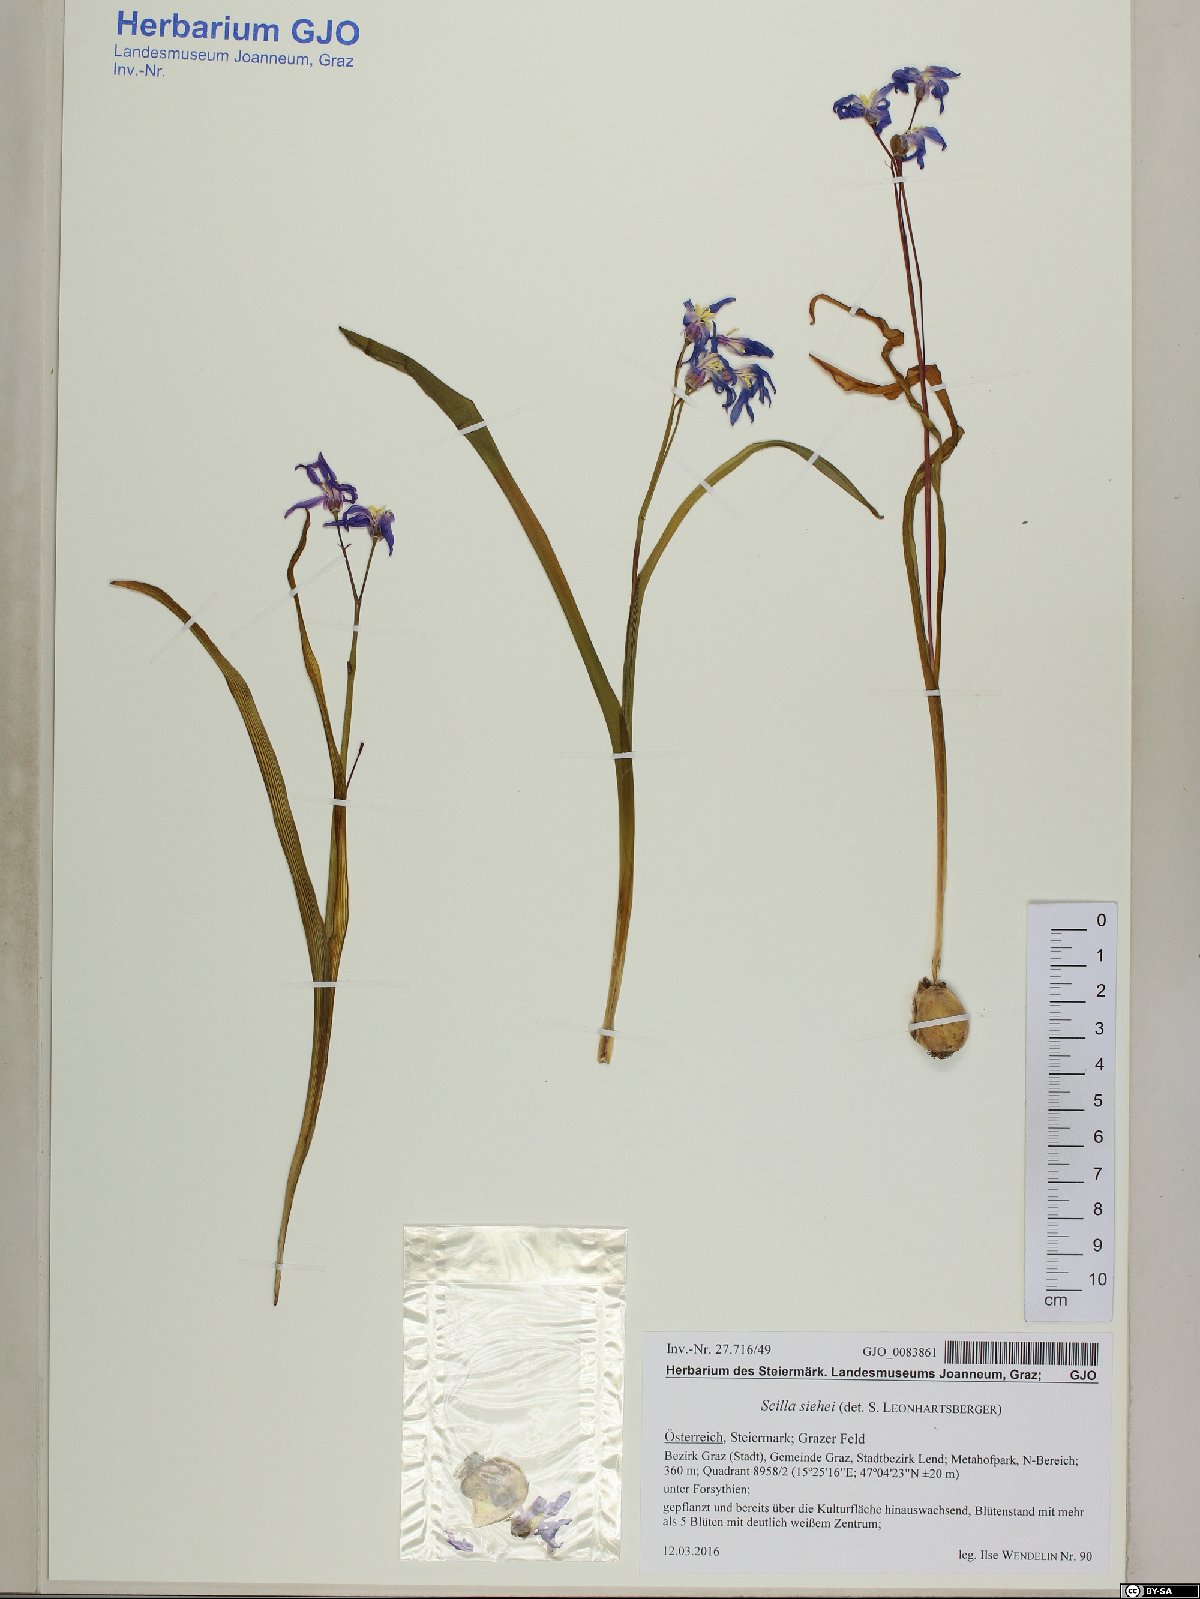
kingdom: Plantae
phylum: Tracheophyta
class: Liliopsida
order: Asparagales
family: Asparagaceae
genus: Scilla
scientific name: Scilla forbesii
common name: Glory-of-the-snow
